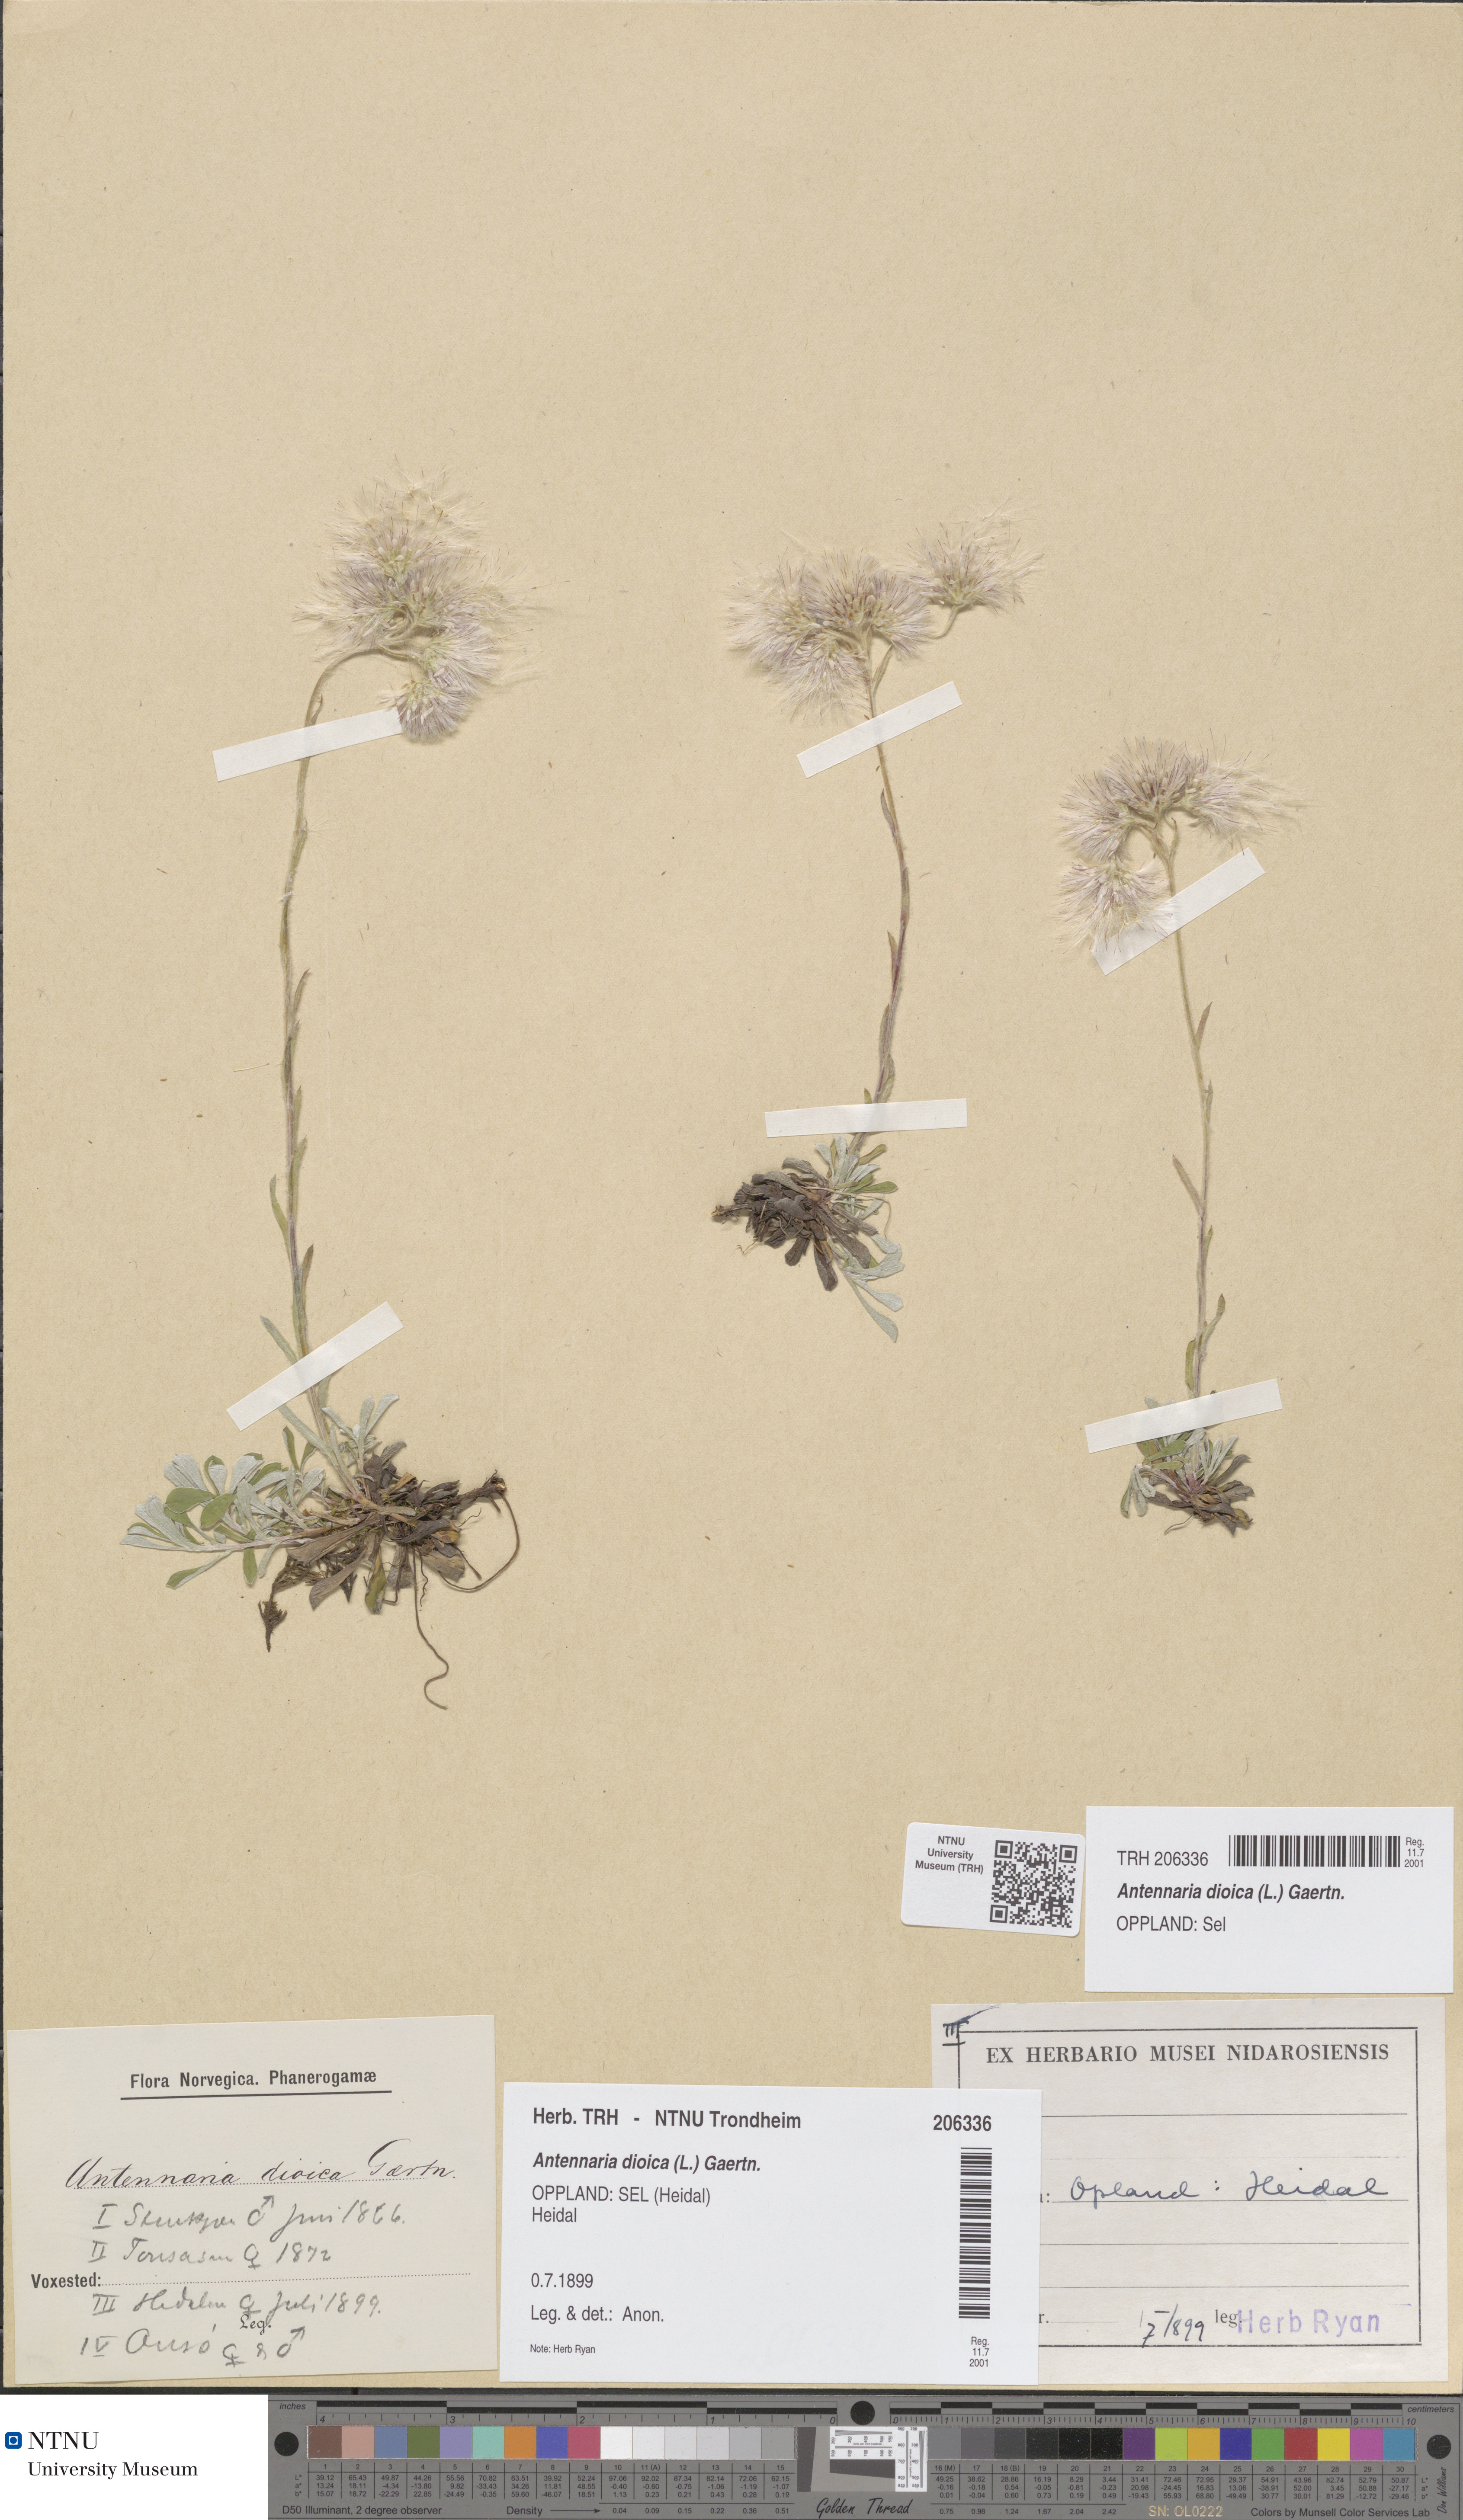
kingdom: Plantae
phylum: Tracheophyta
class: Magnoliopsida
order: Asterales
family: Asteraceae
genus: Antennaria
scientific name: Antennaria dioica
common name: Mountain everlasting
